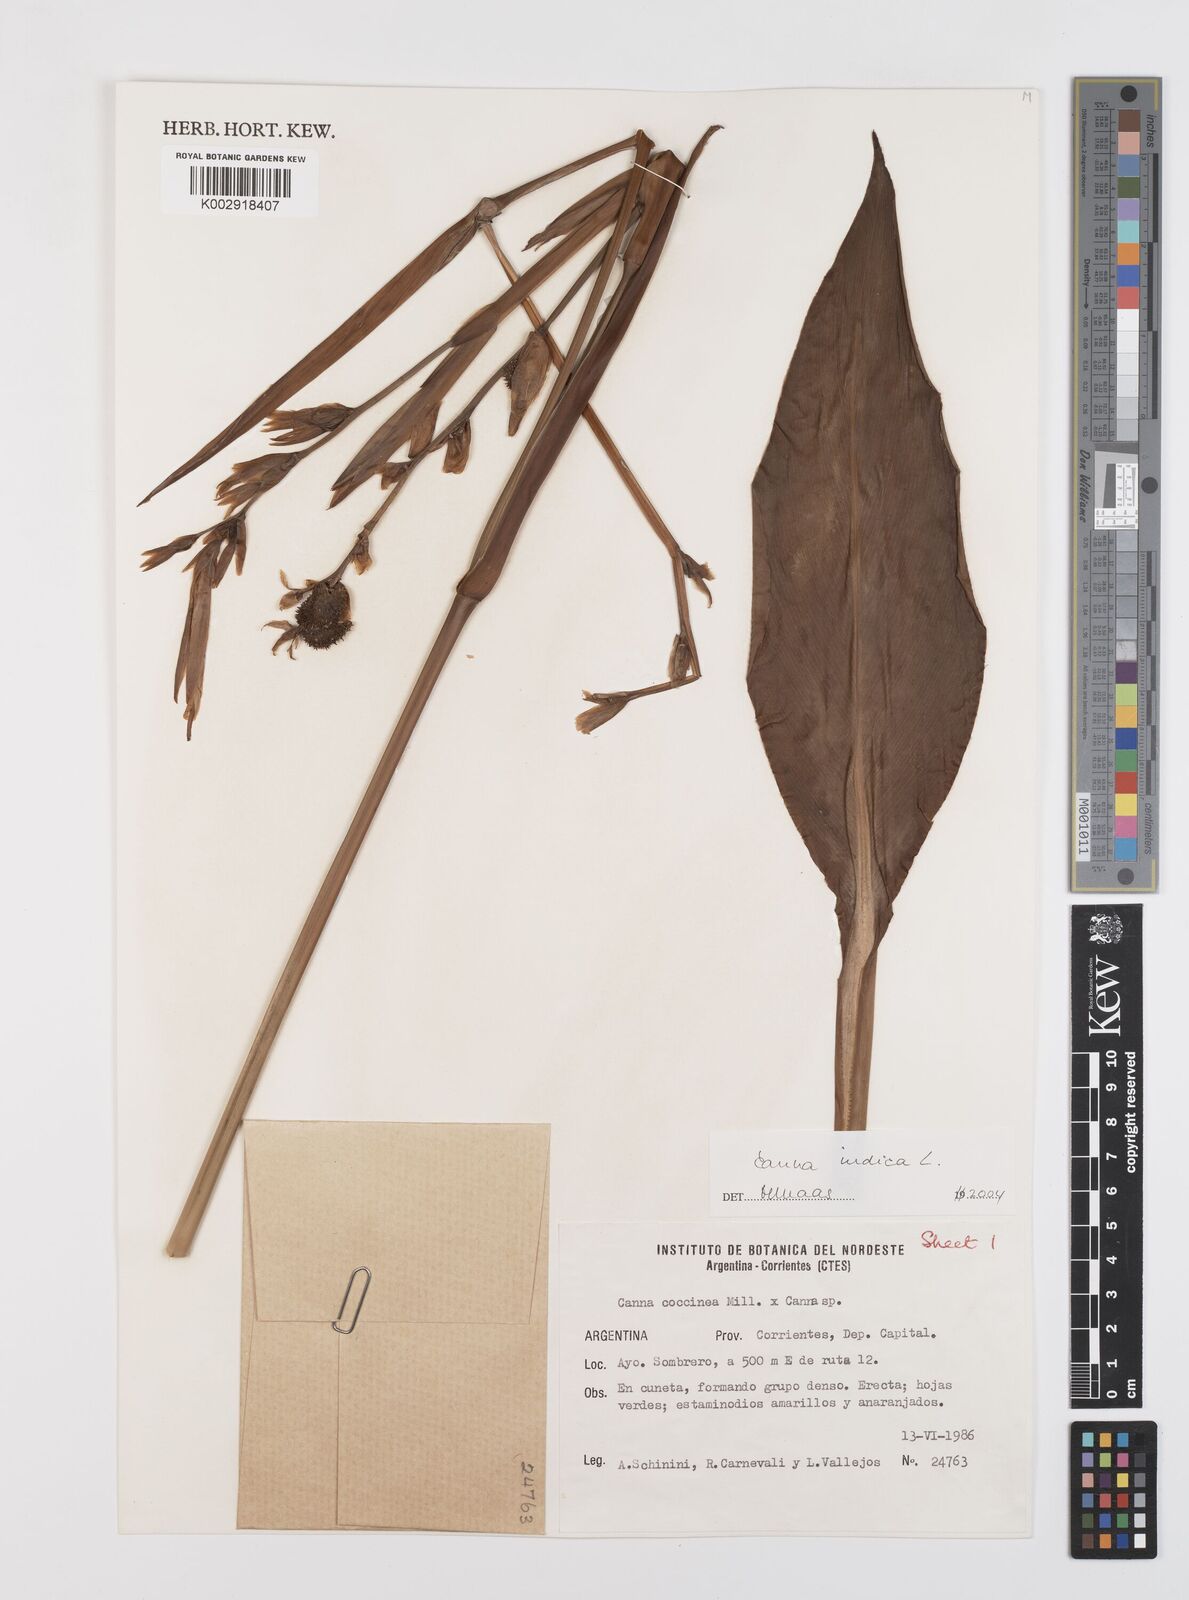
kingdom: Plantae
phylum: Tracheophyta
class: Liliopsida
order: Zingiberales
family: Cannaceae
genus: Canna
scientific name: Canna indica
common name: Indian shot
